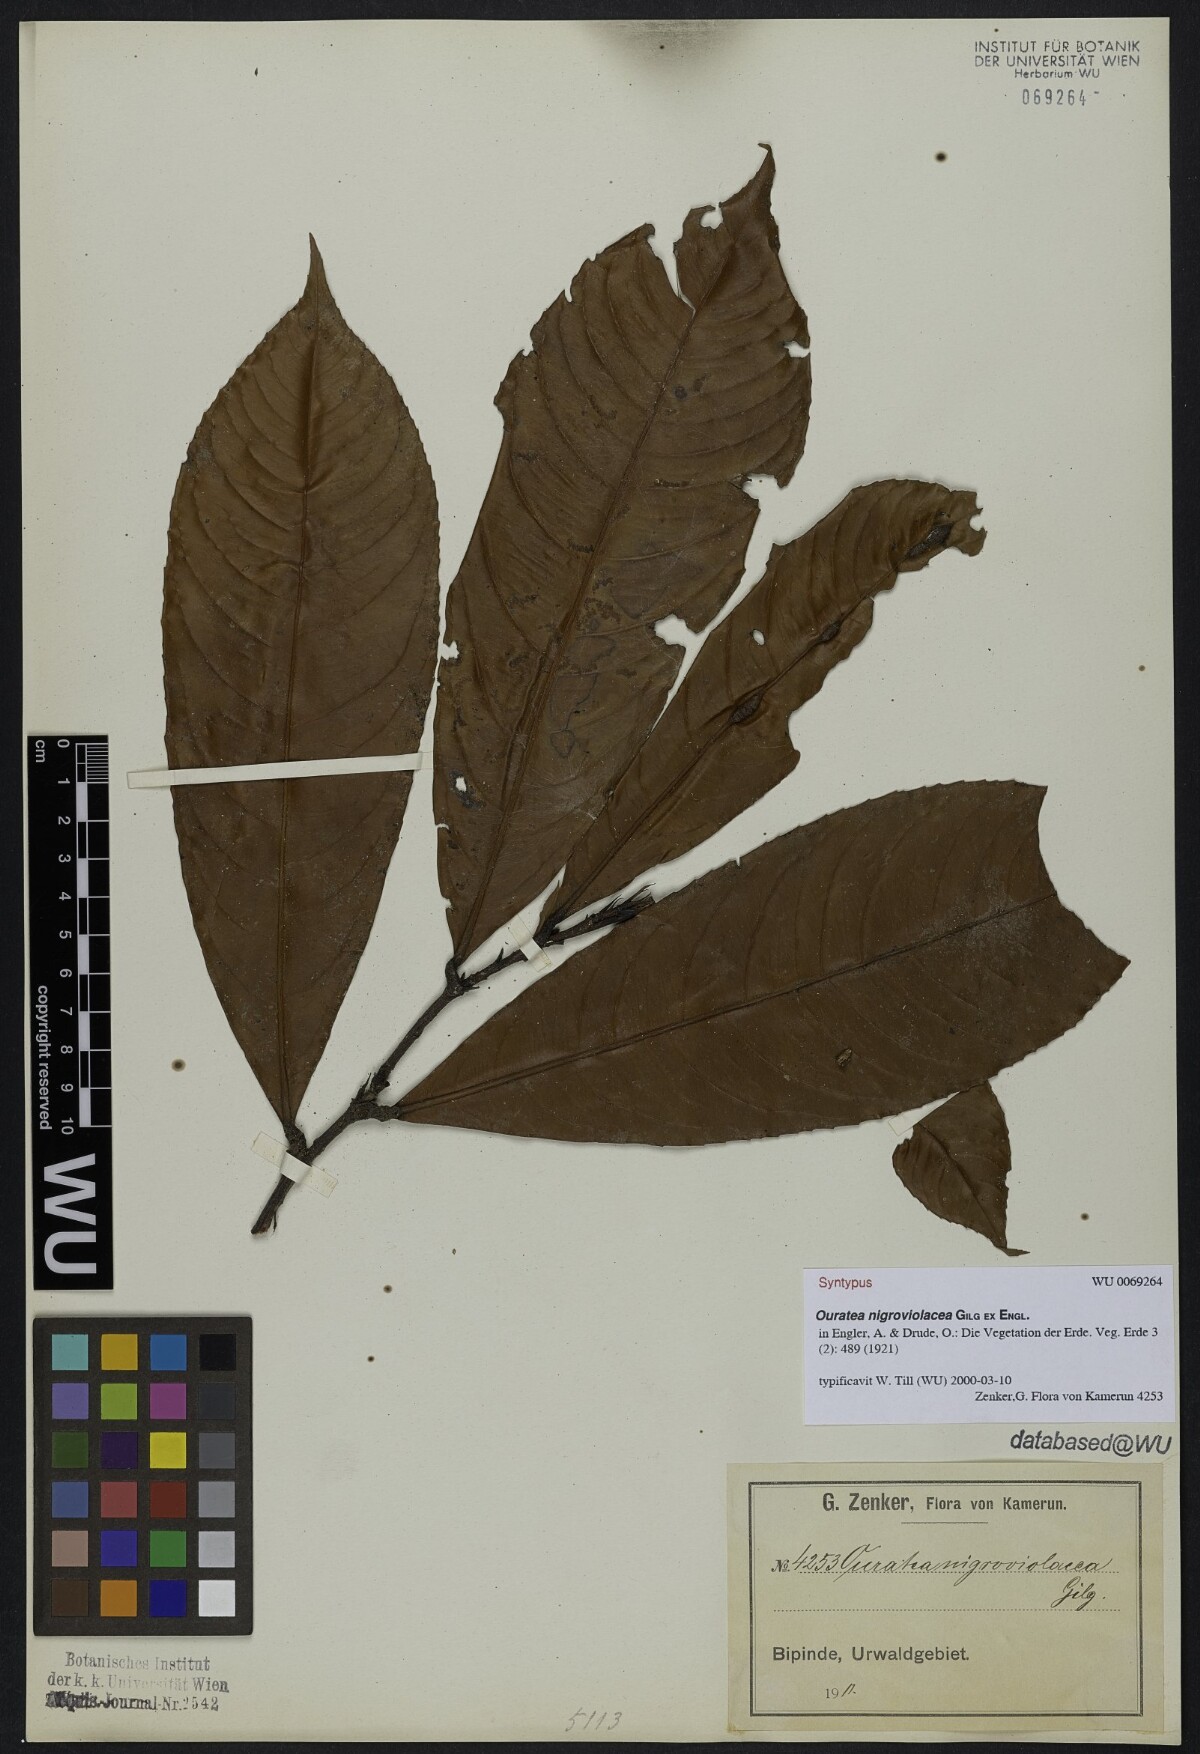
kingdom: Plantae
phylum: Tracheophyta
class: Magnoliopsida
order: Malpighiales
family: Ochnaceae
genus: Ouratea
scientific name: Ouratea nigroviolacea
